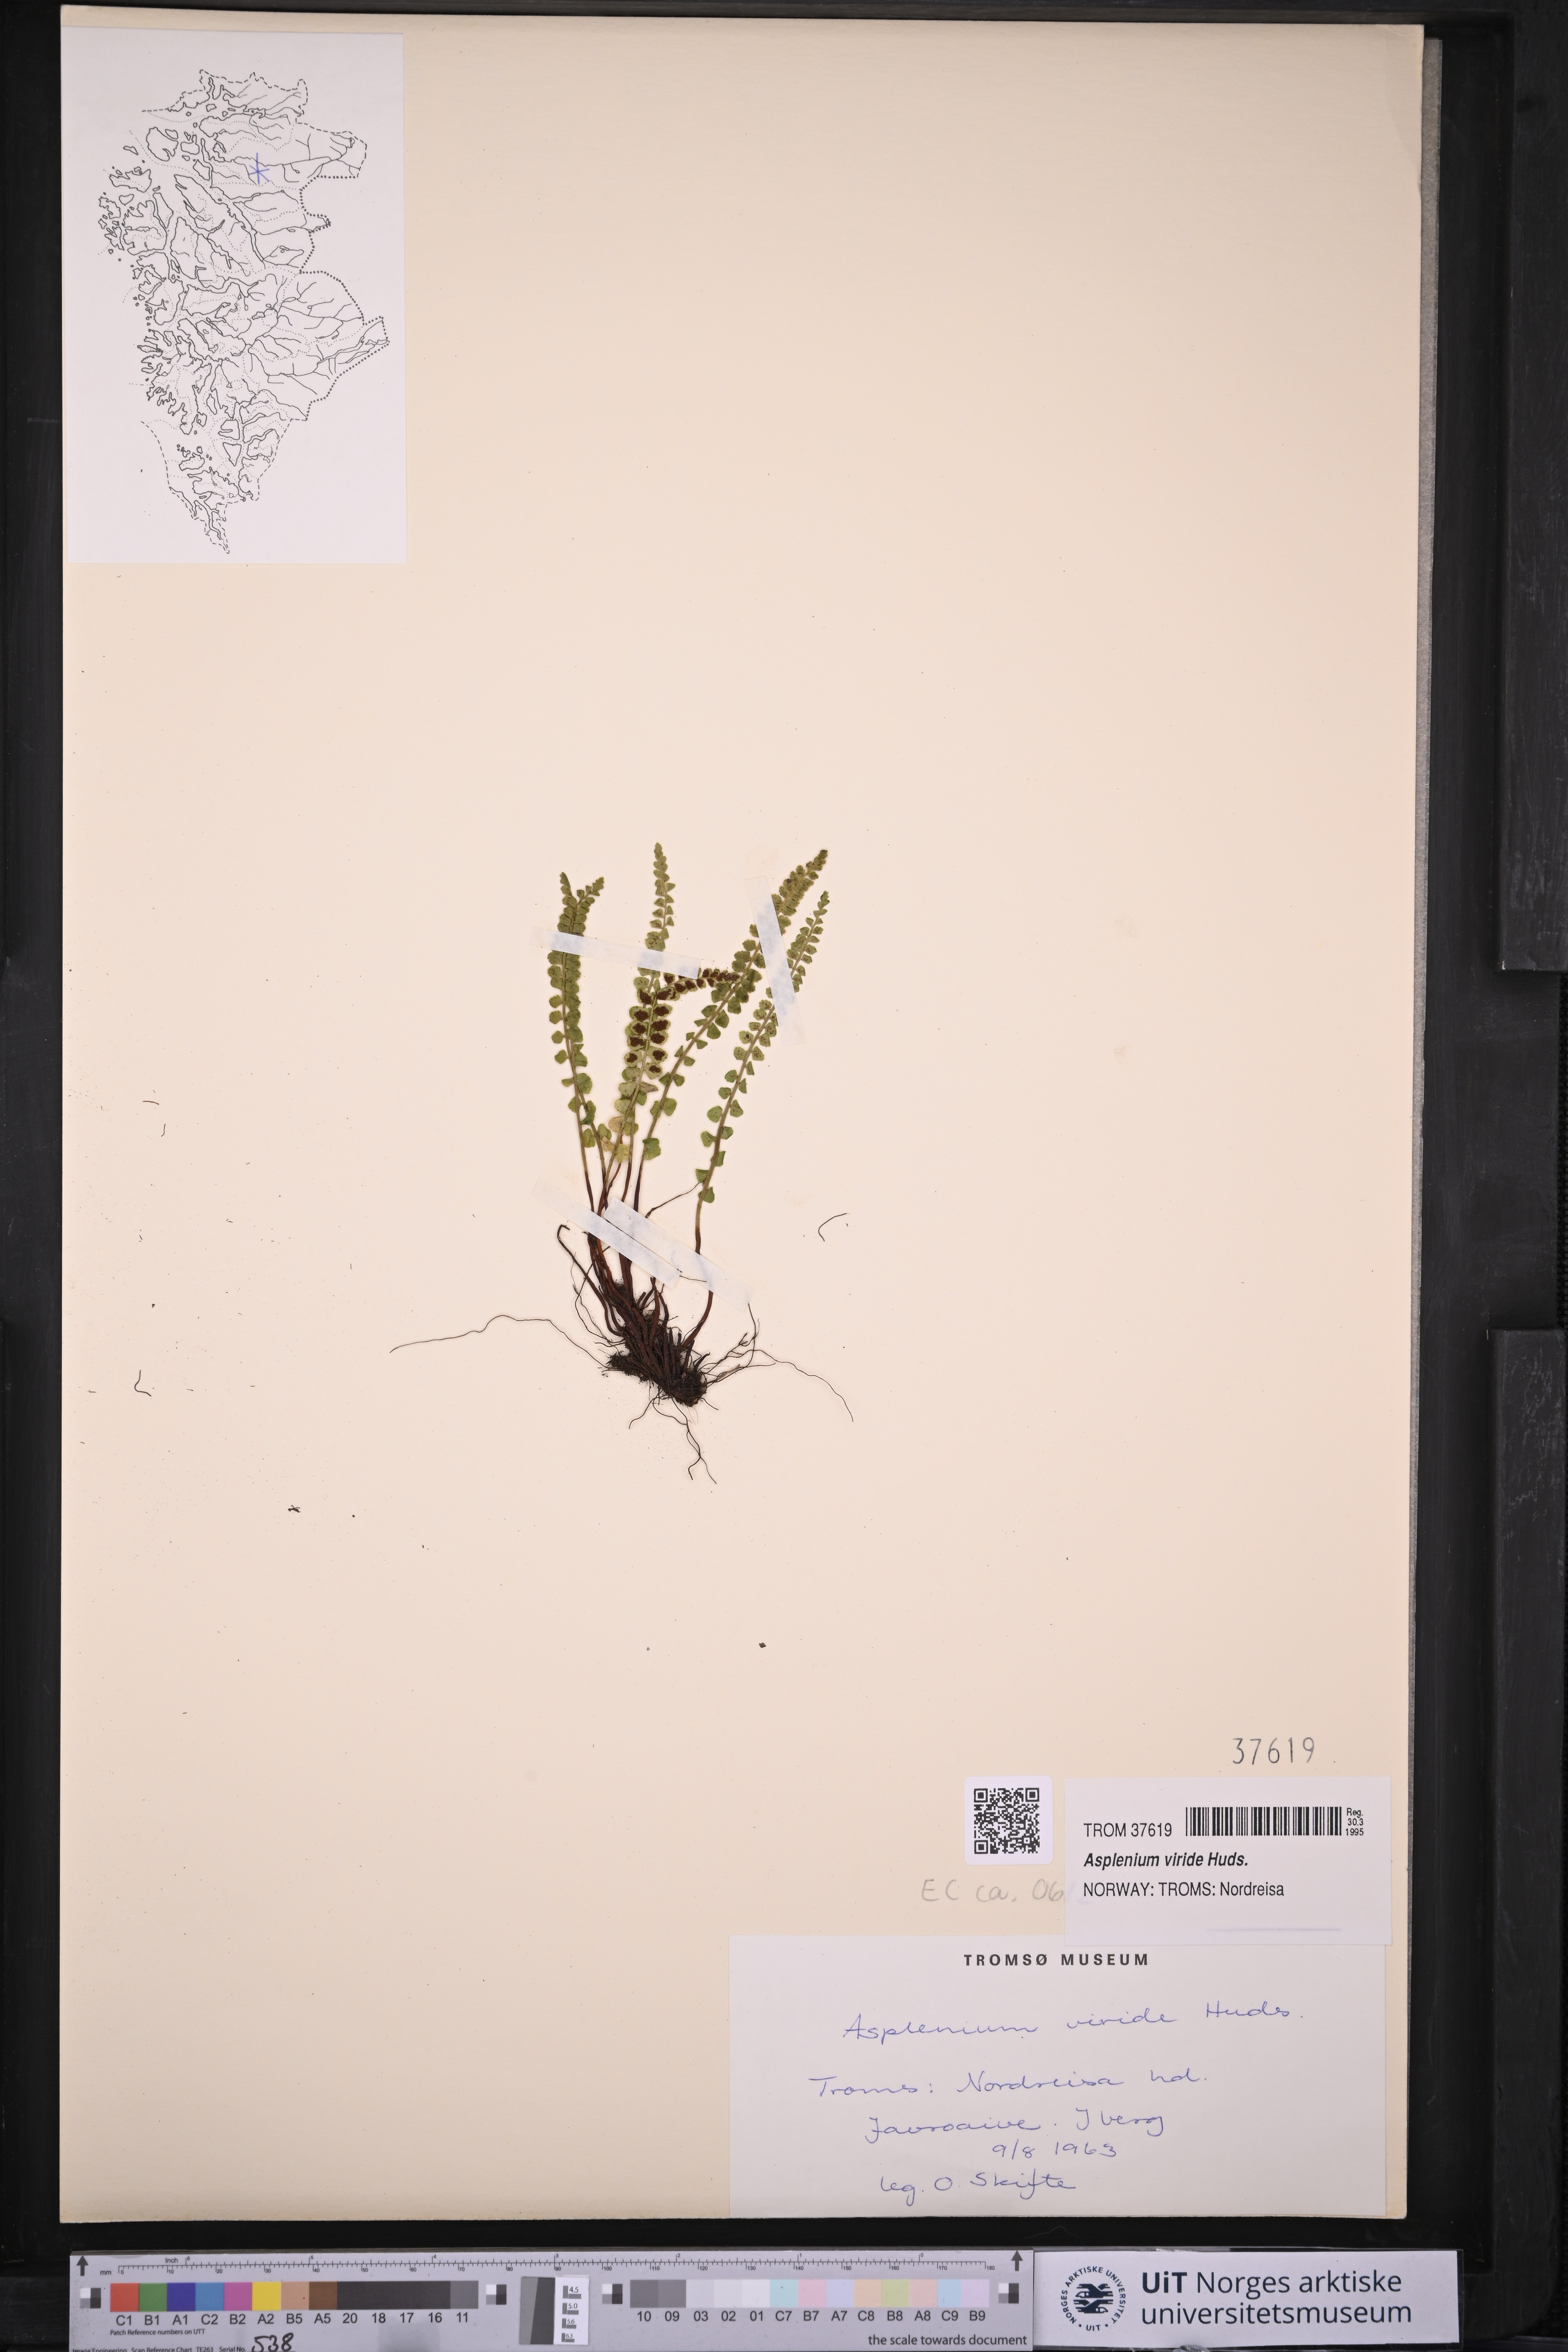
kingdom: Plantae
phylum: Tracheophyta
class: Polypodiopsida
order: Polypodiales
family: Aspleniaceae
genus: Asplenium
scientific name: Asplenium viride
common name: Green spleenwort
